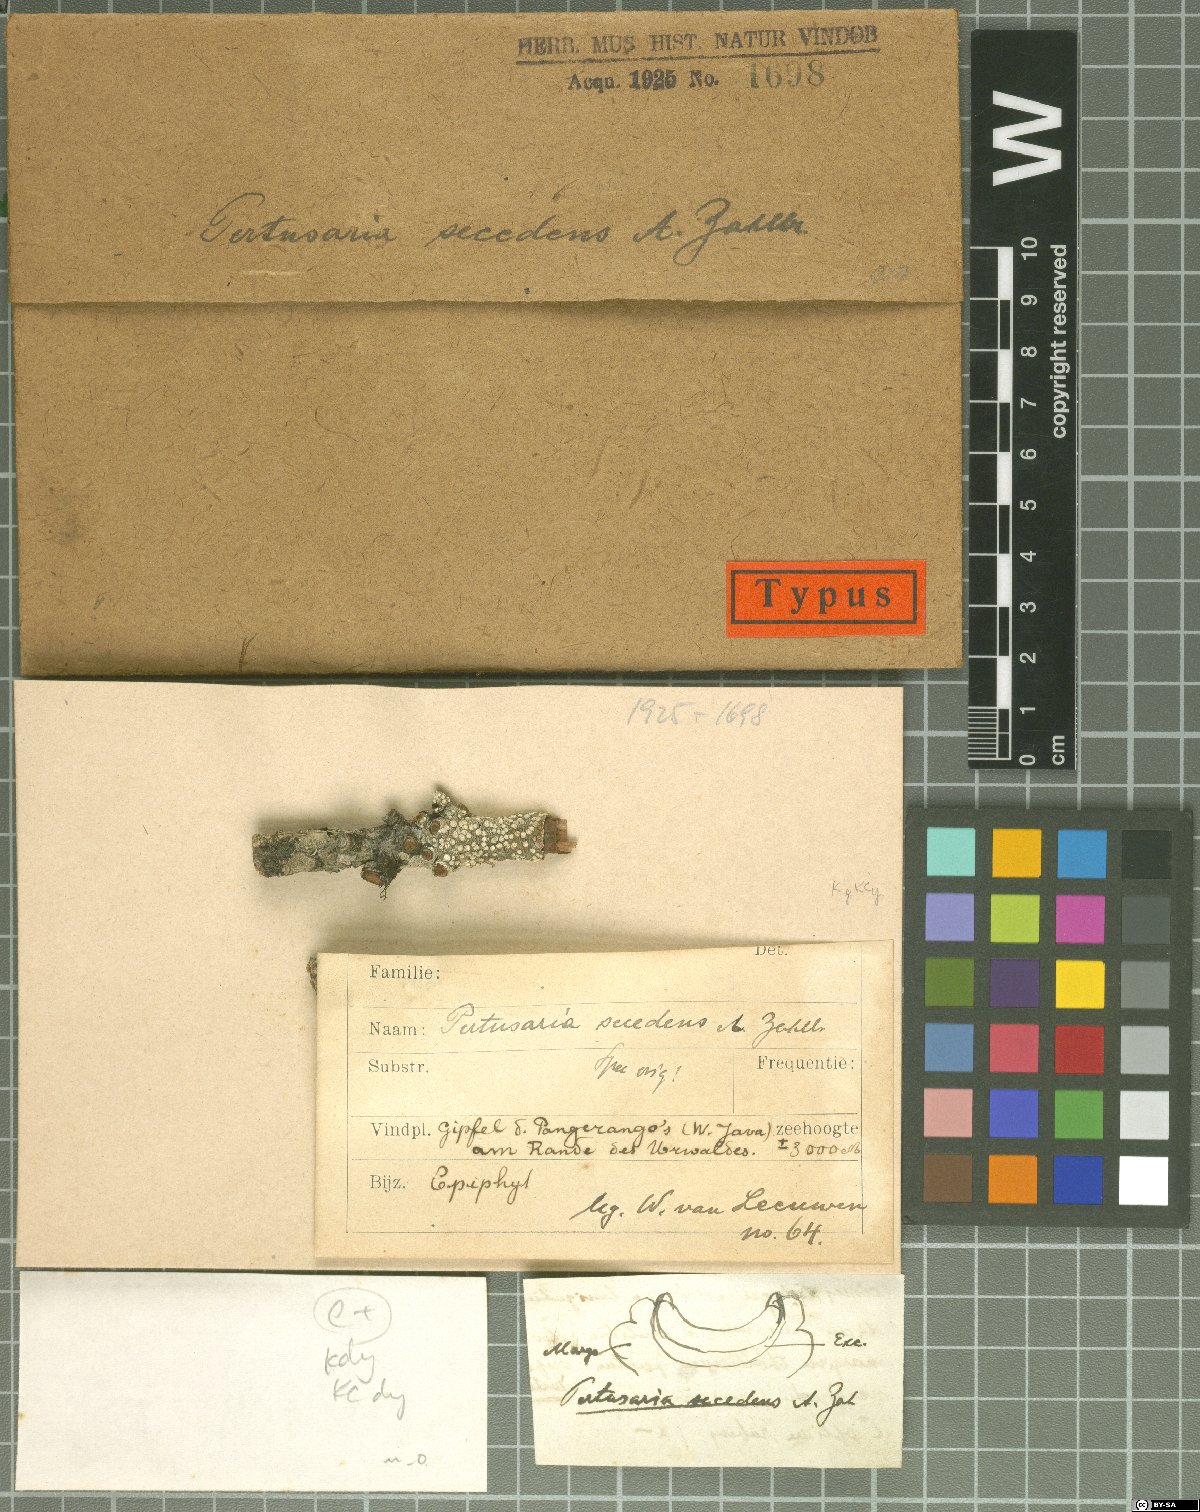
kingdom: Fungi
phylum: Ascomycota
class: Lecanoromycetes
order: Pertusariales
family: Pertusariaceae
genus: Pertusaria
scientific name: Pertusaria
